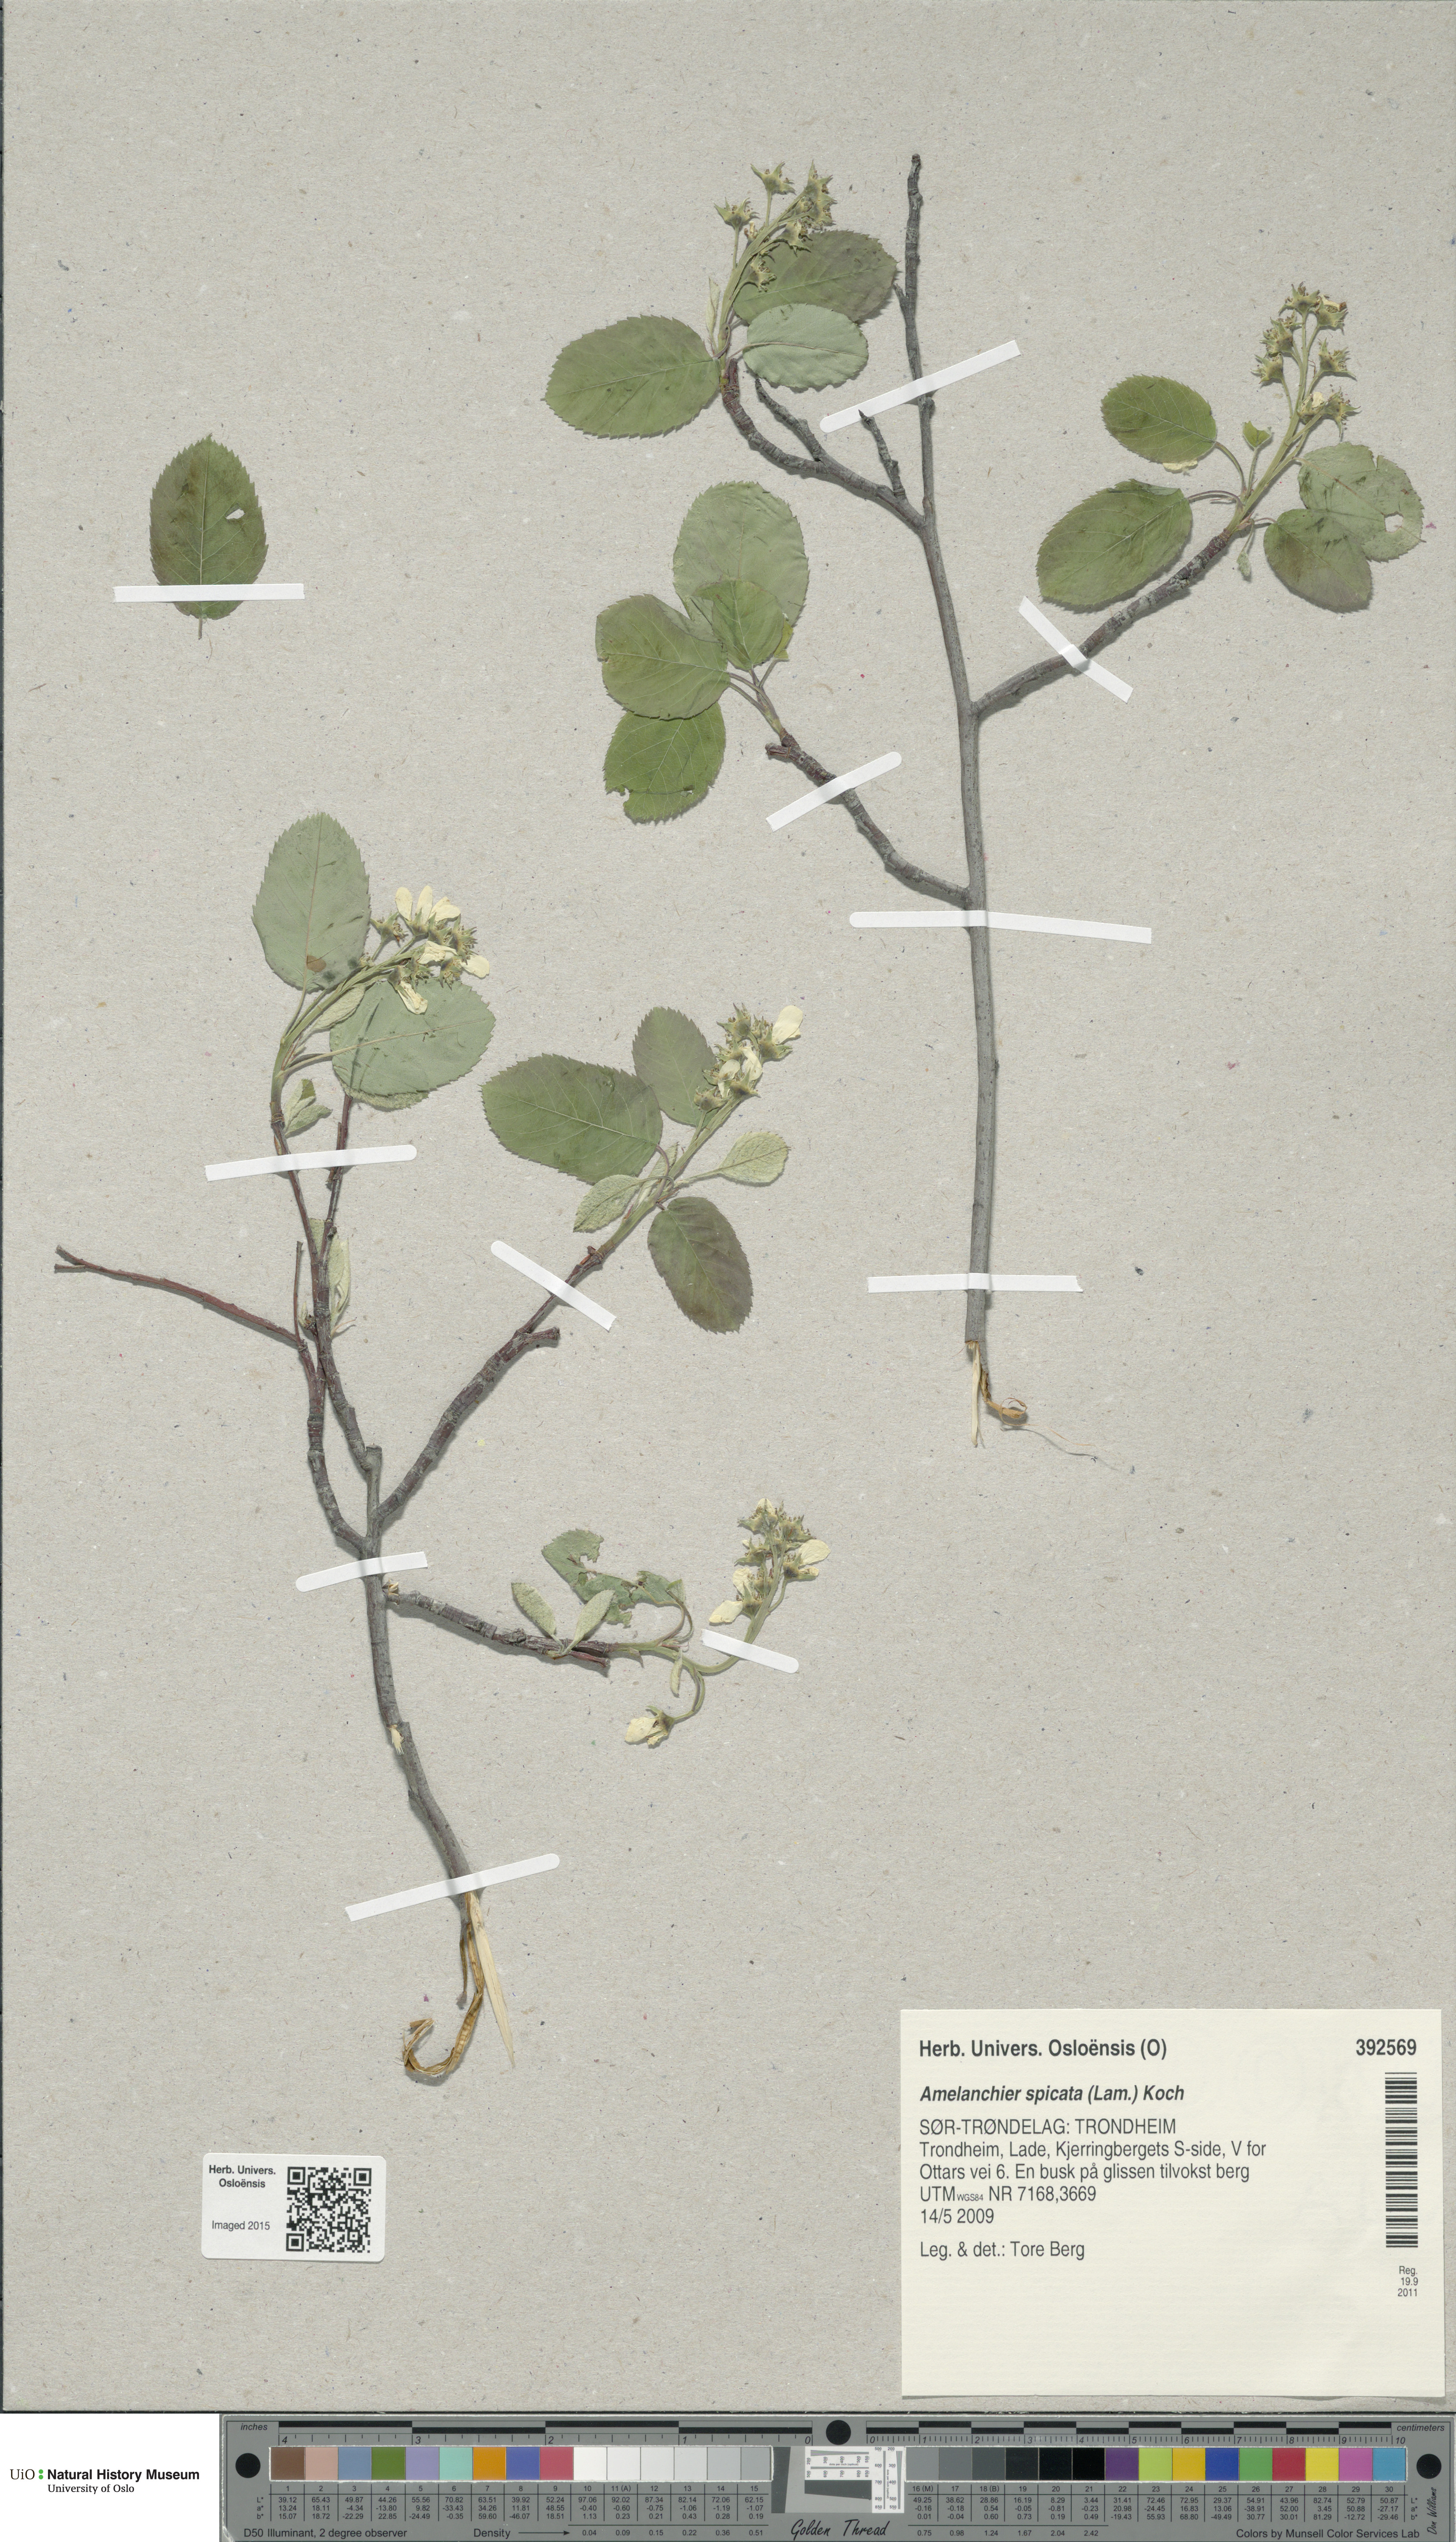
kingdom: Plantae
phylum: Tracheophyta
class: Magnoliopsida
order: Rosales
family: Rosaceae
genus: Amelanchier
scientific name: Amelanchier humilis
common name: Low juneberry
